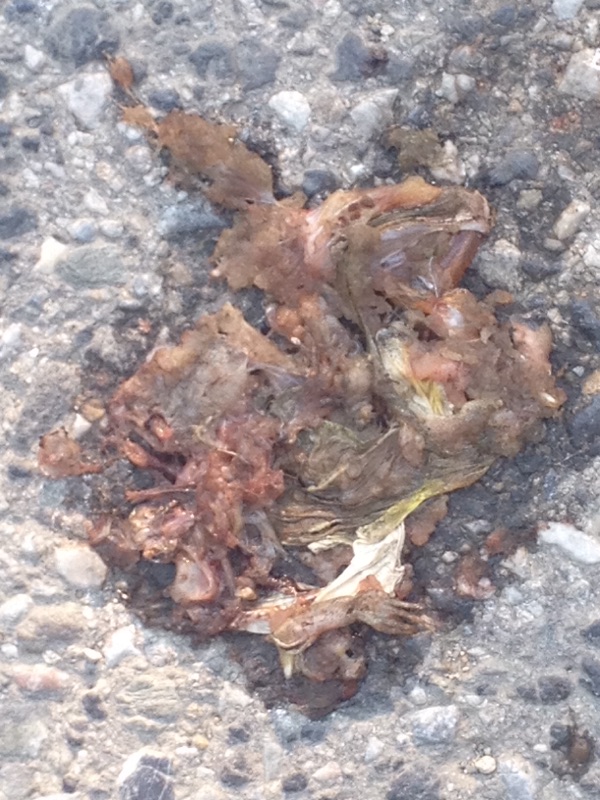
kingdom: Animalia
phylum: Chordata
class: Amphibia
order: Anura
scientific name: Anura
